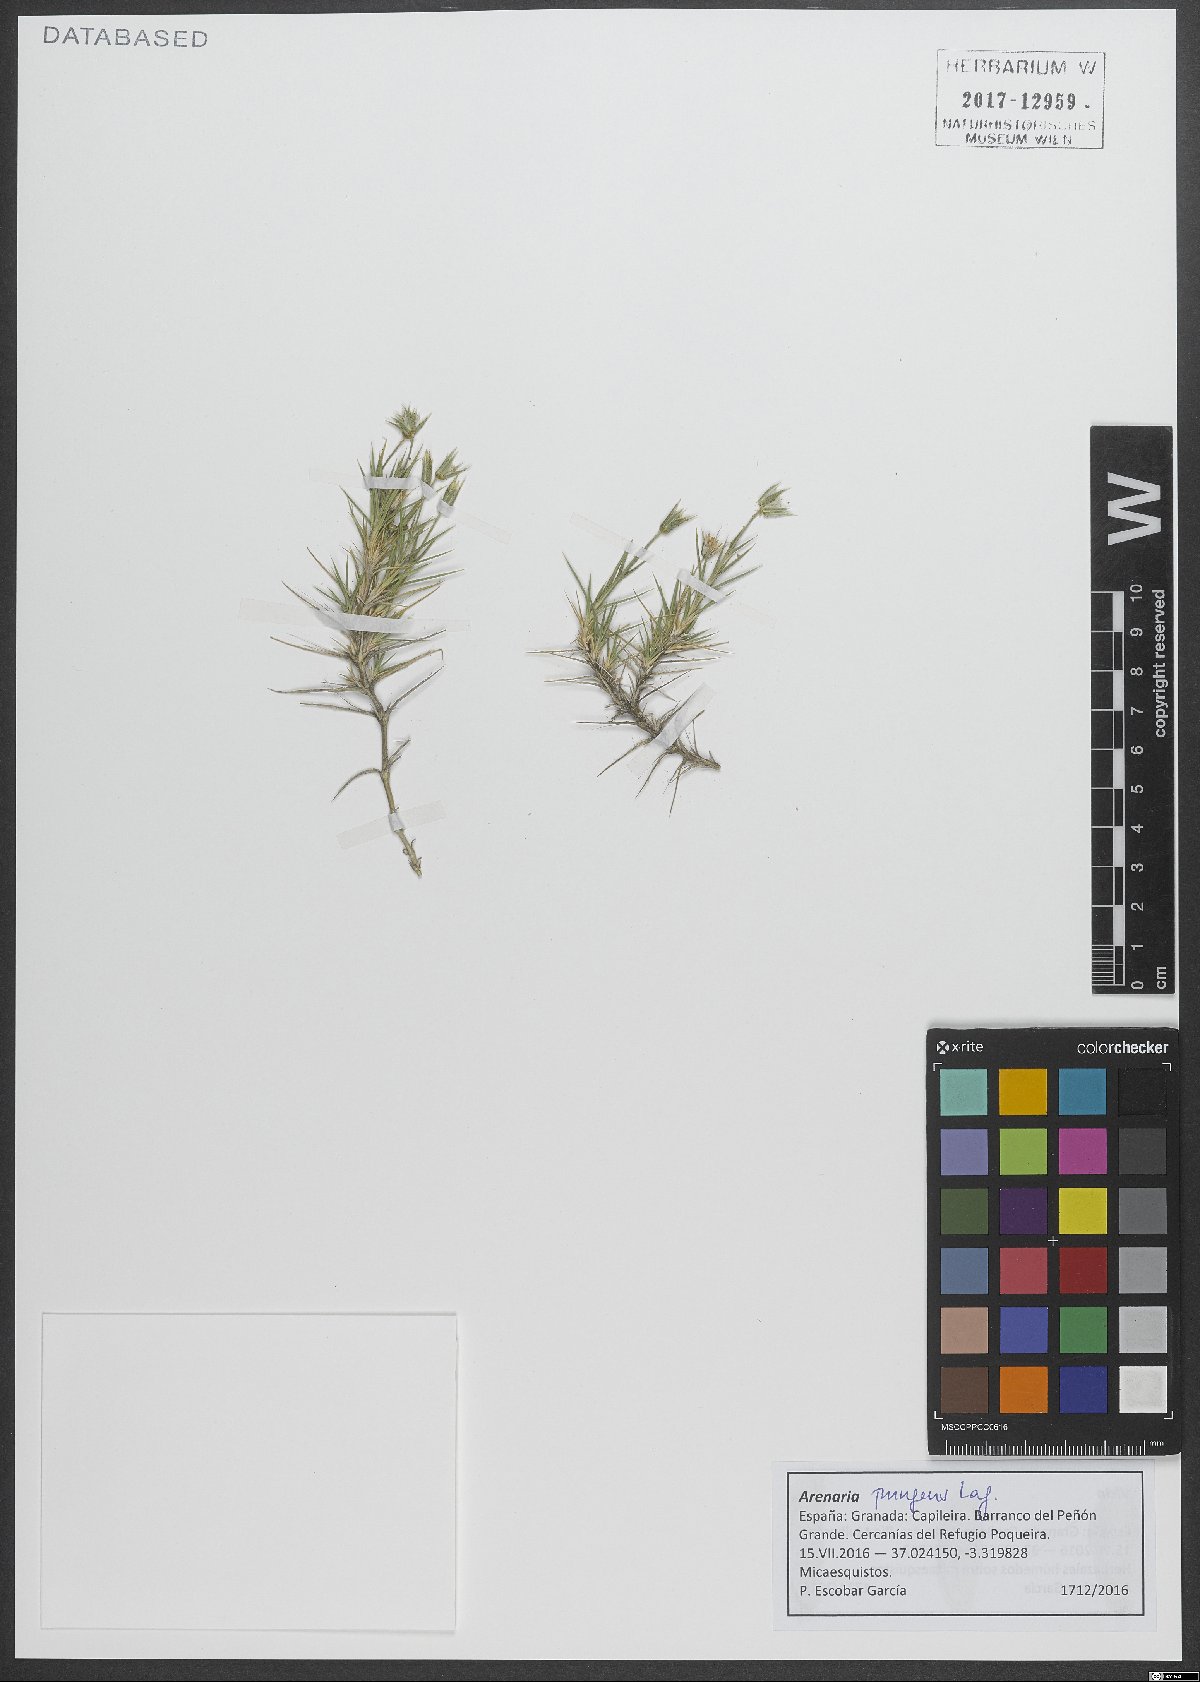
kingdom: Plantae
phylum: Tracheophyta
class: Magnoliopsida
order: Caryophyllales
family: Caryophyllaceae
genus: Arenaria
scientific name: Arenaria pungens
